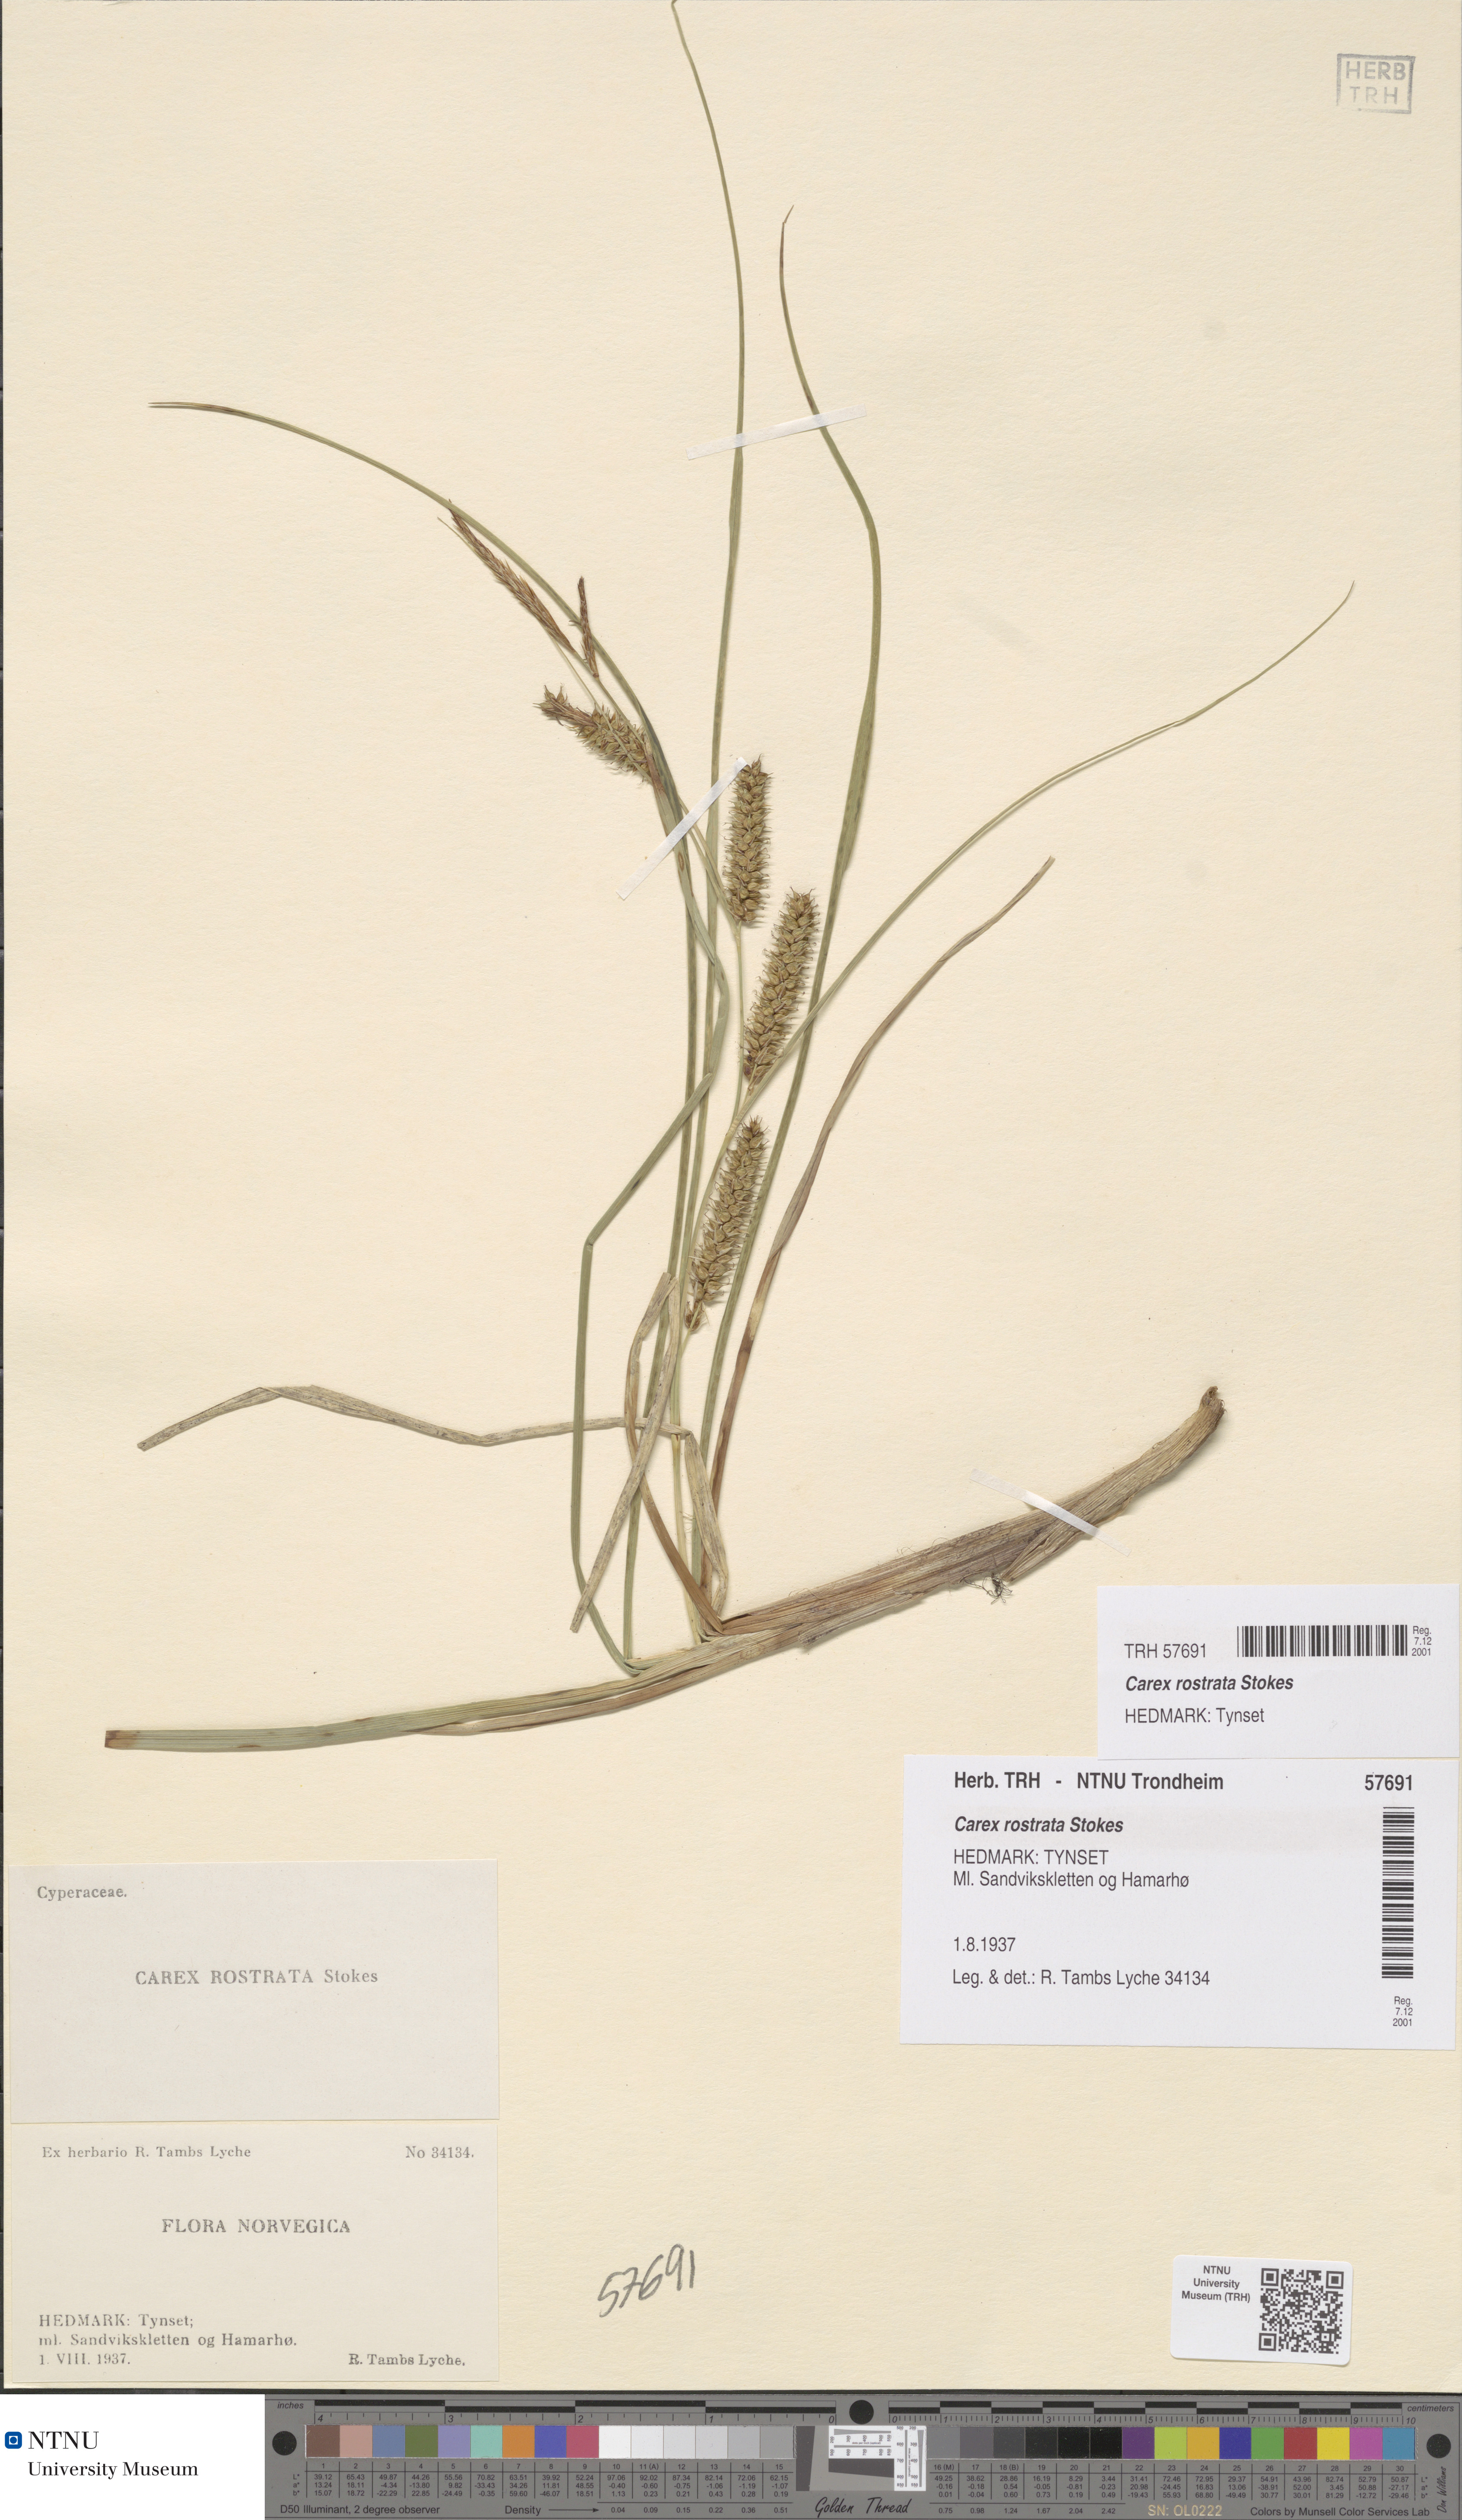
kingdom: Plantae
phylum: Tracheophyta
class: Liliopsida
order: Poales
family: Cyperaceae
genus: Carex
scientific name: Carex rostrata
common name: Bottle sedge
